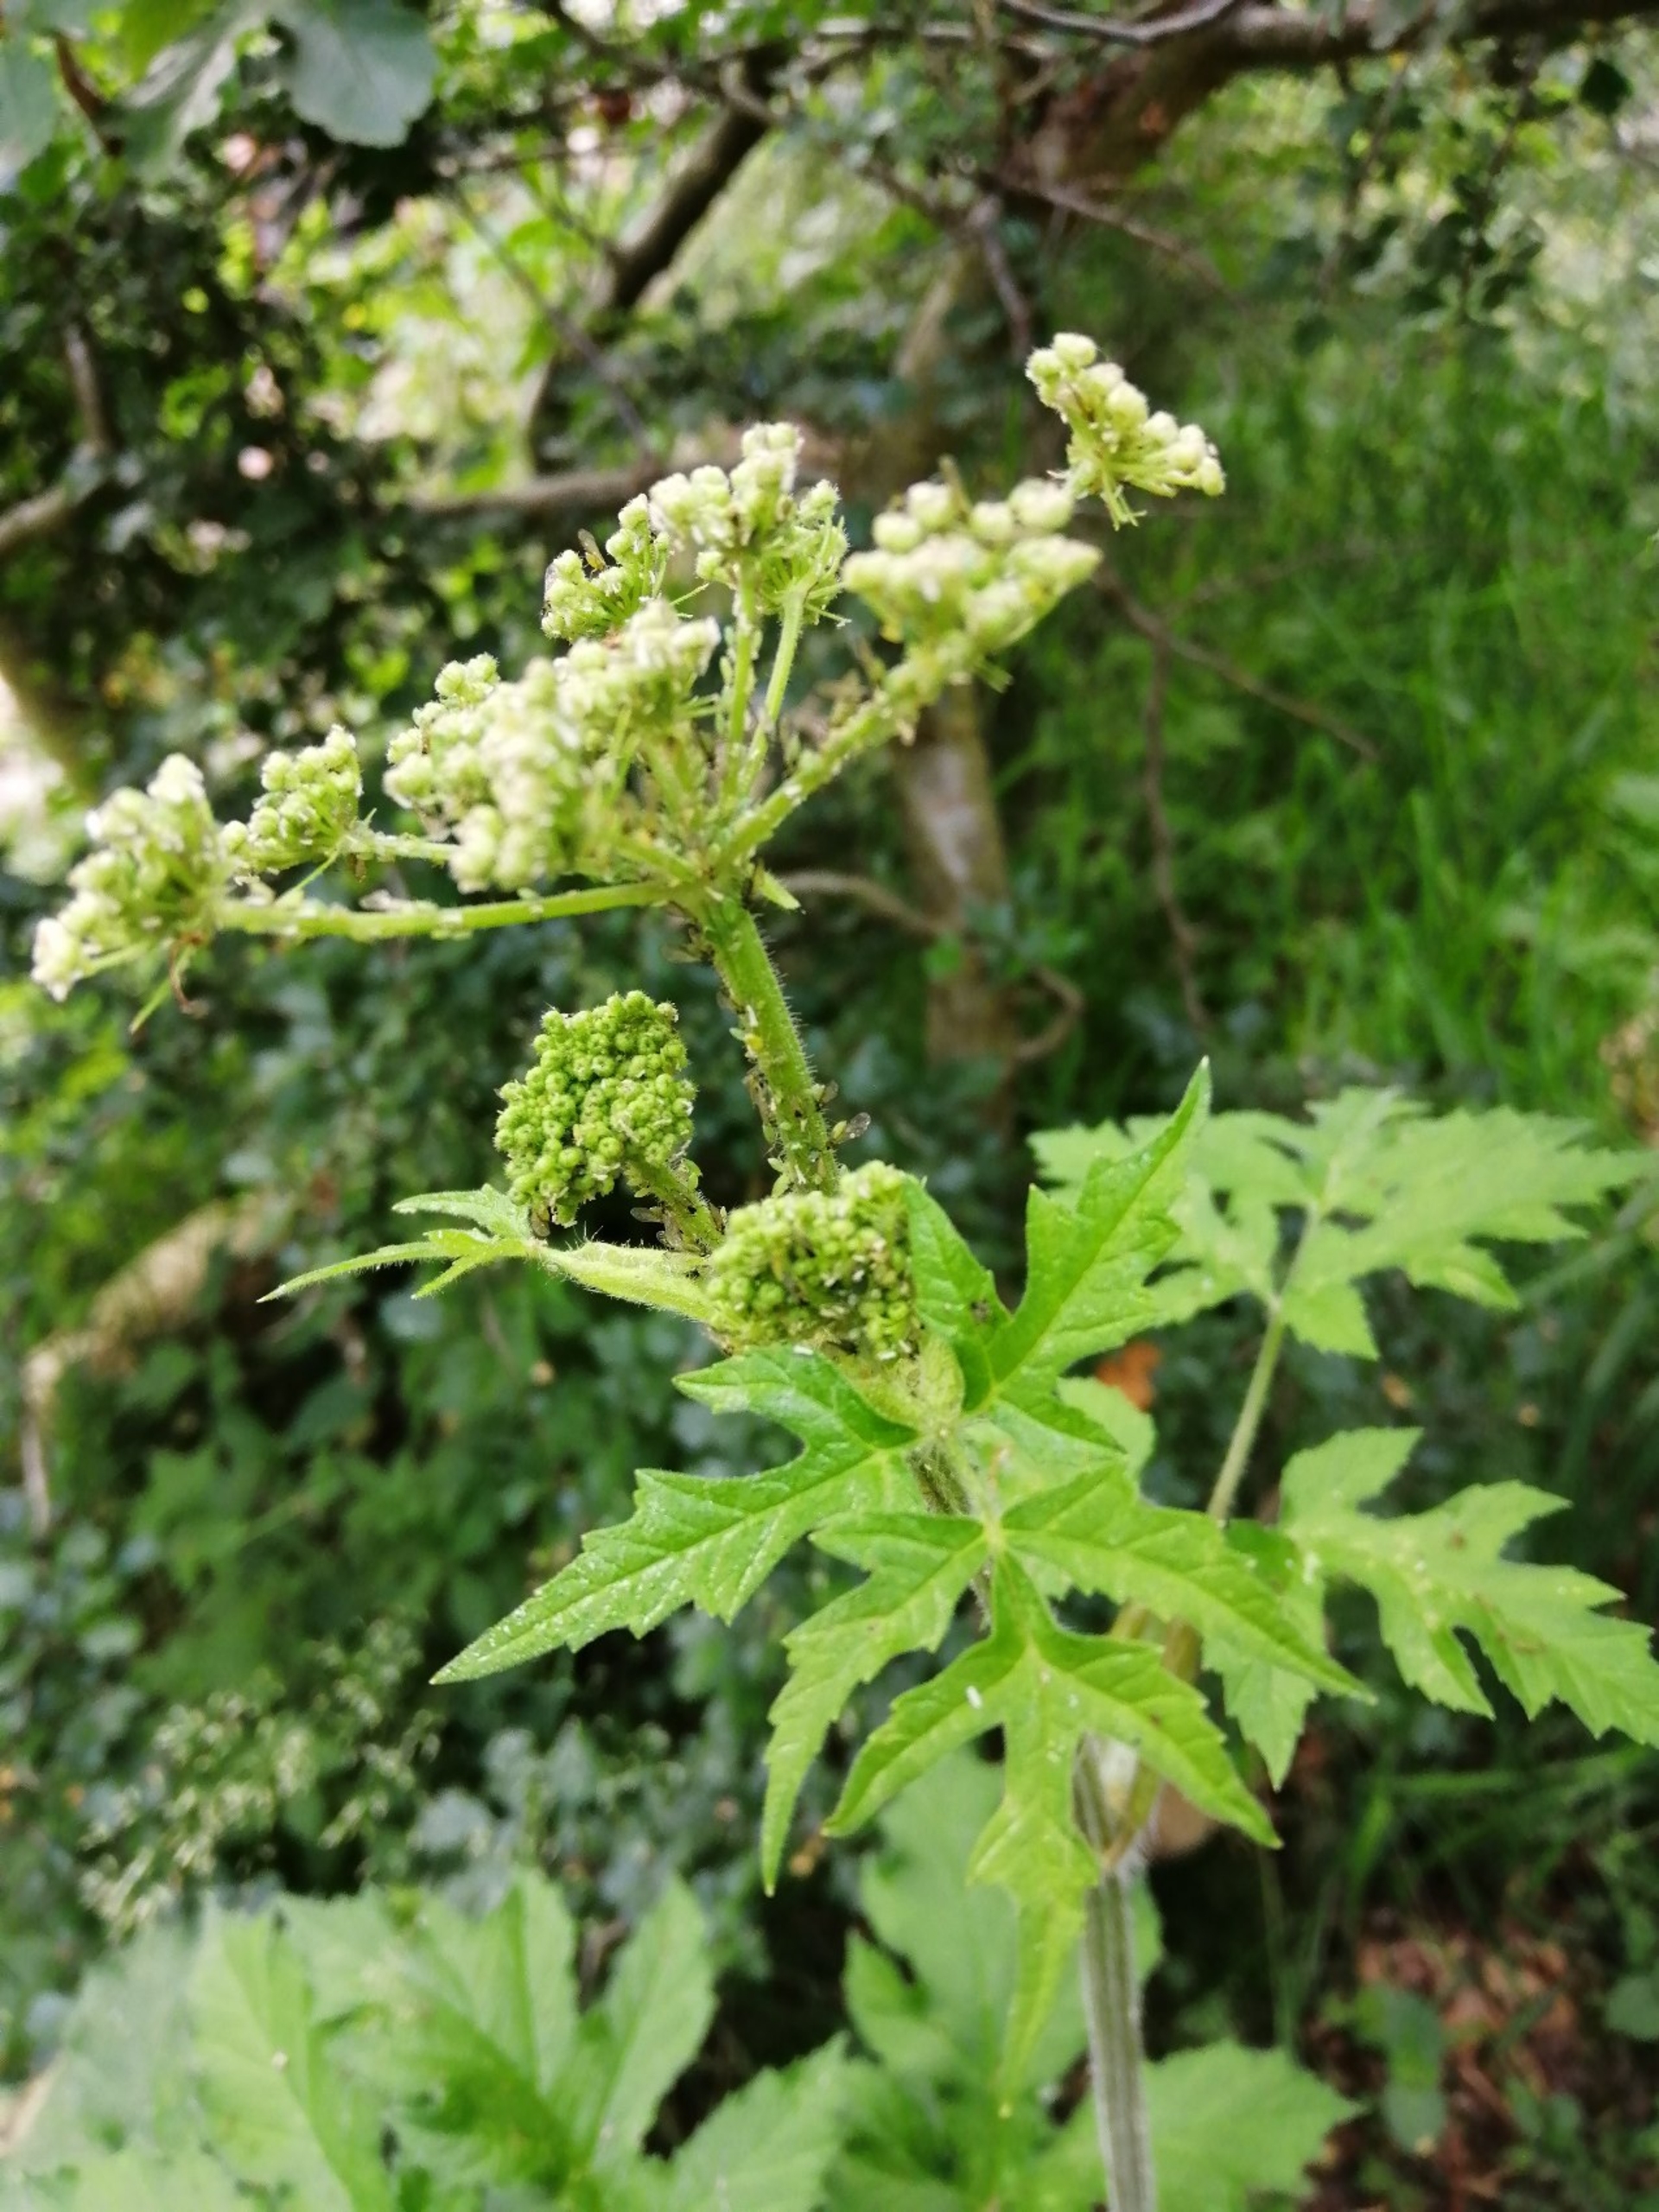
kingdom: Plantae
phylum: Tracheophyta
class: Magnoliopsida
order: Apiales
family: Apiaceae
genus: Heracleum
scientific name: Heracleum sphondylium
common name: Almindelig bjørneklo
